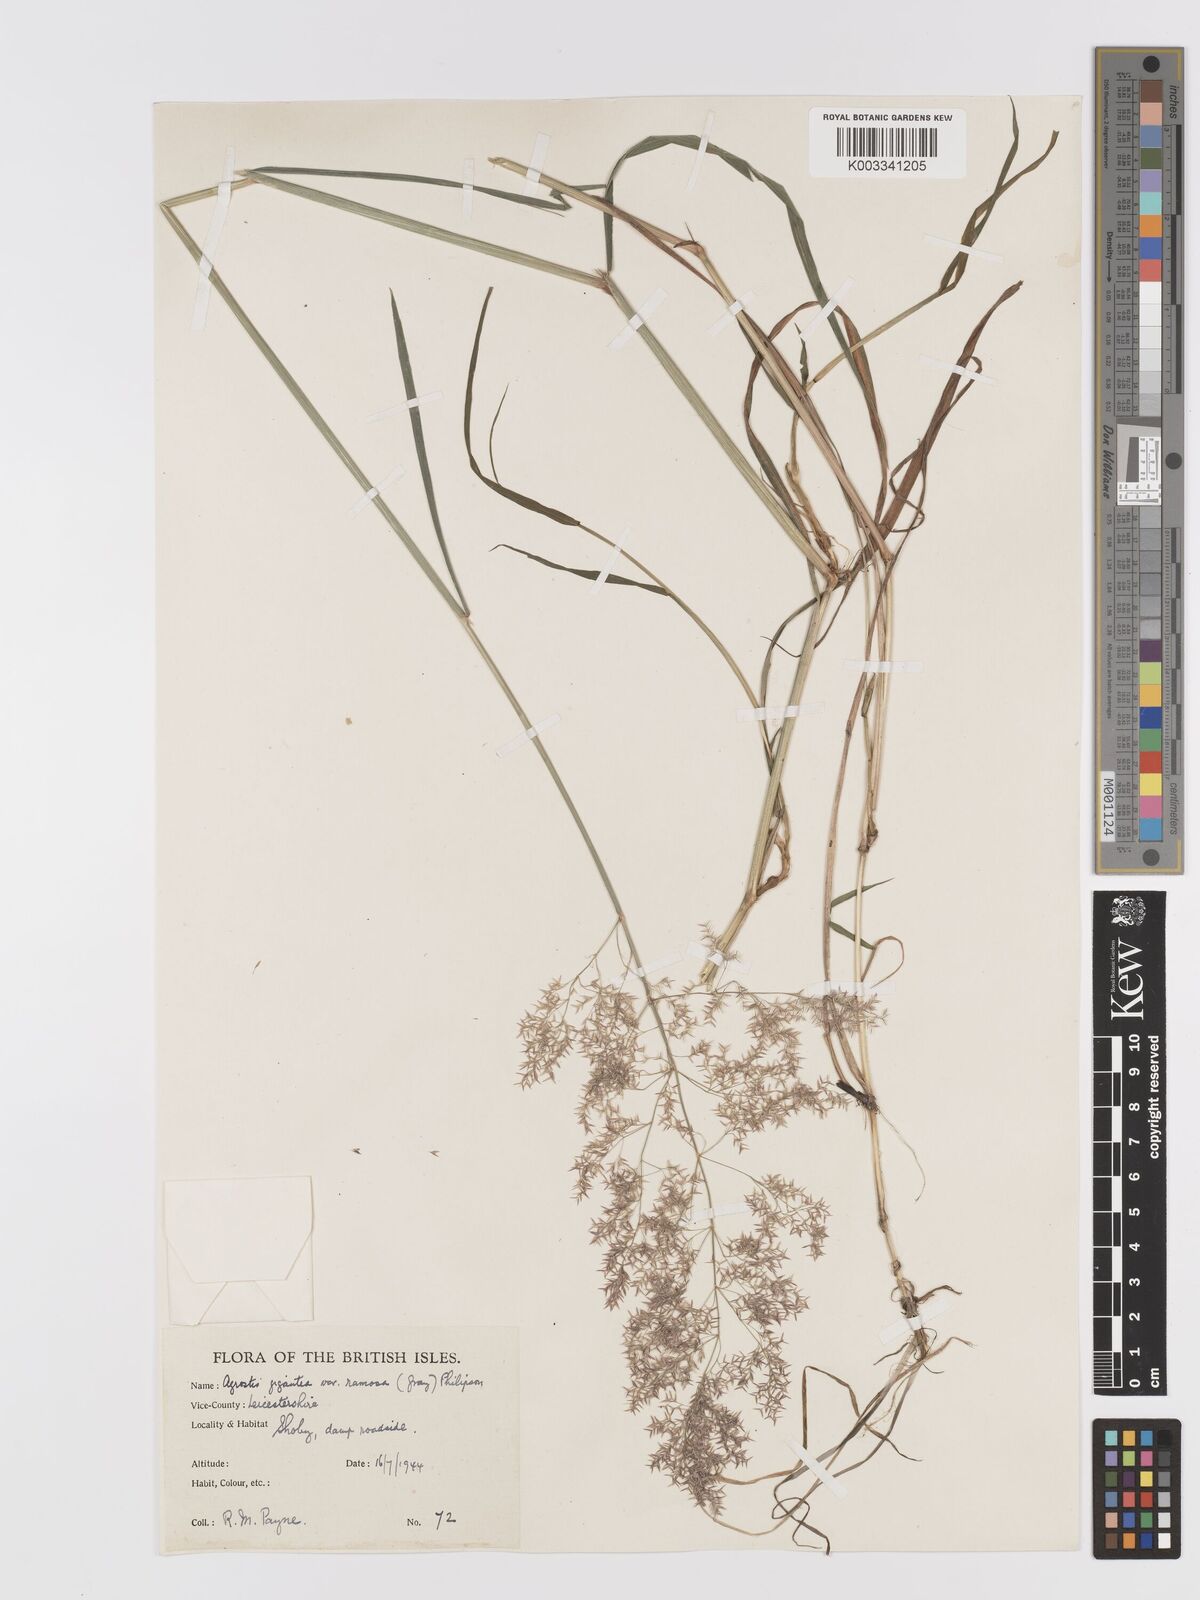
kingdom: Plantae
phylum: Tracheophyta
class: Liliopsida
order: Poales
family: Poaceae
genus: Agrostis
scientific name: Agrostis gigantea
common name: Black bent
